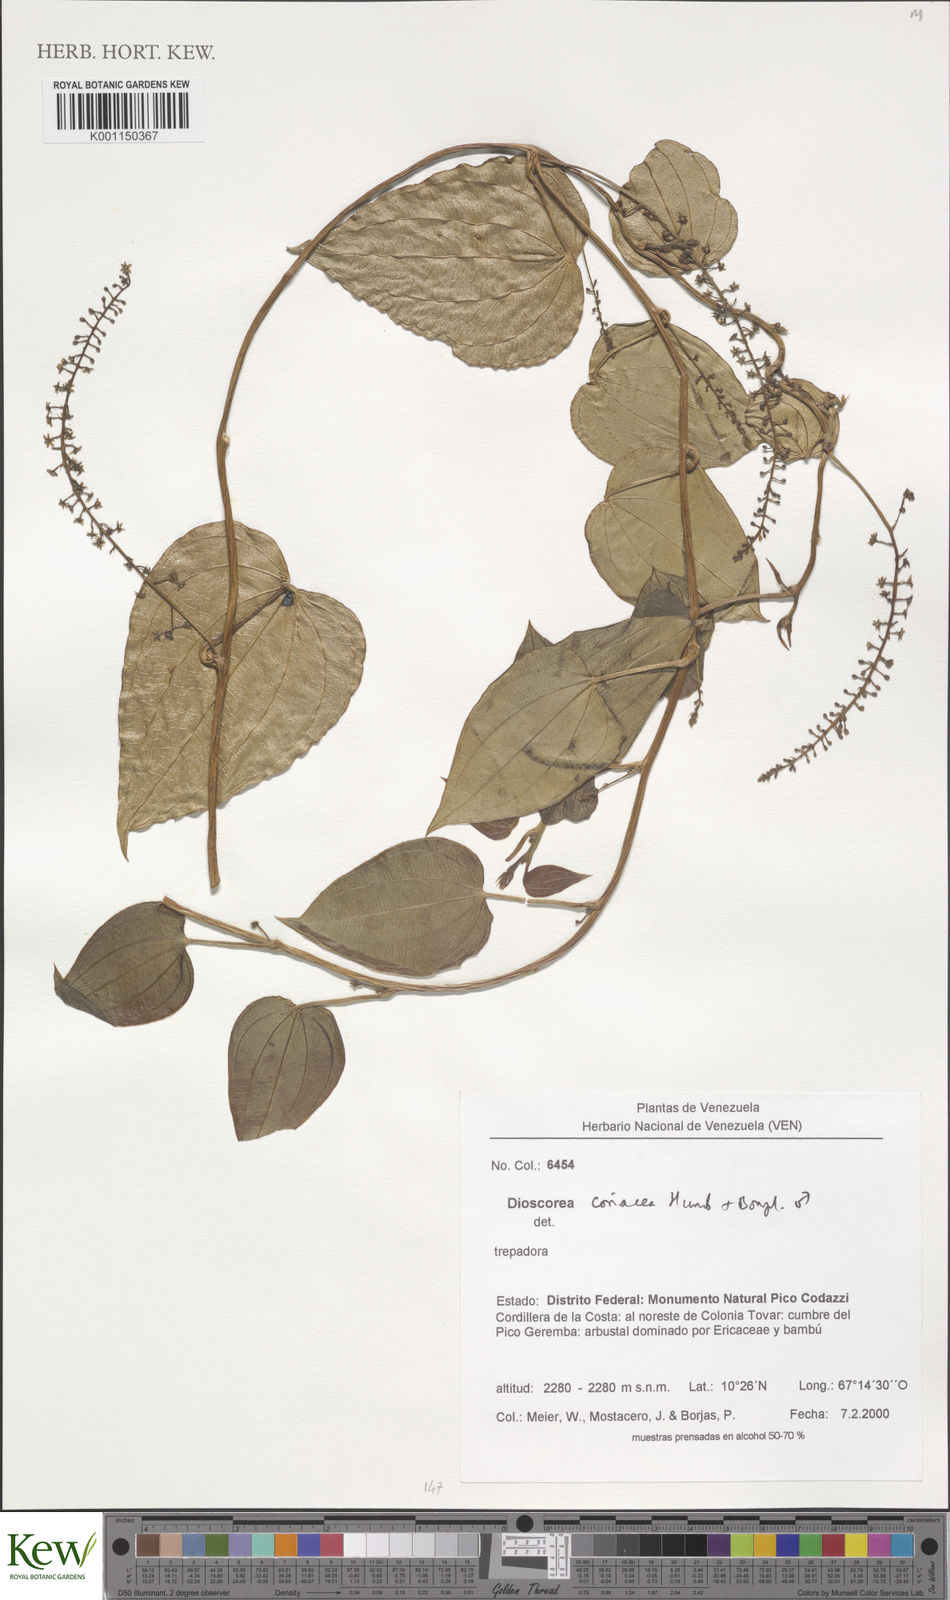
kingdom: Plantae
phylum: Tracheophyta
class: Liliopsida
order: Dioscoreales
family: Dioscoreaceae
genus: Dioscorea
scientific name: Dioscorea coriacea
